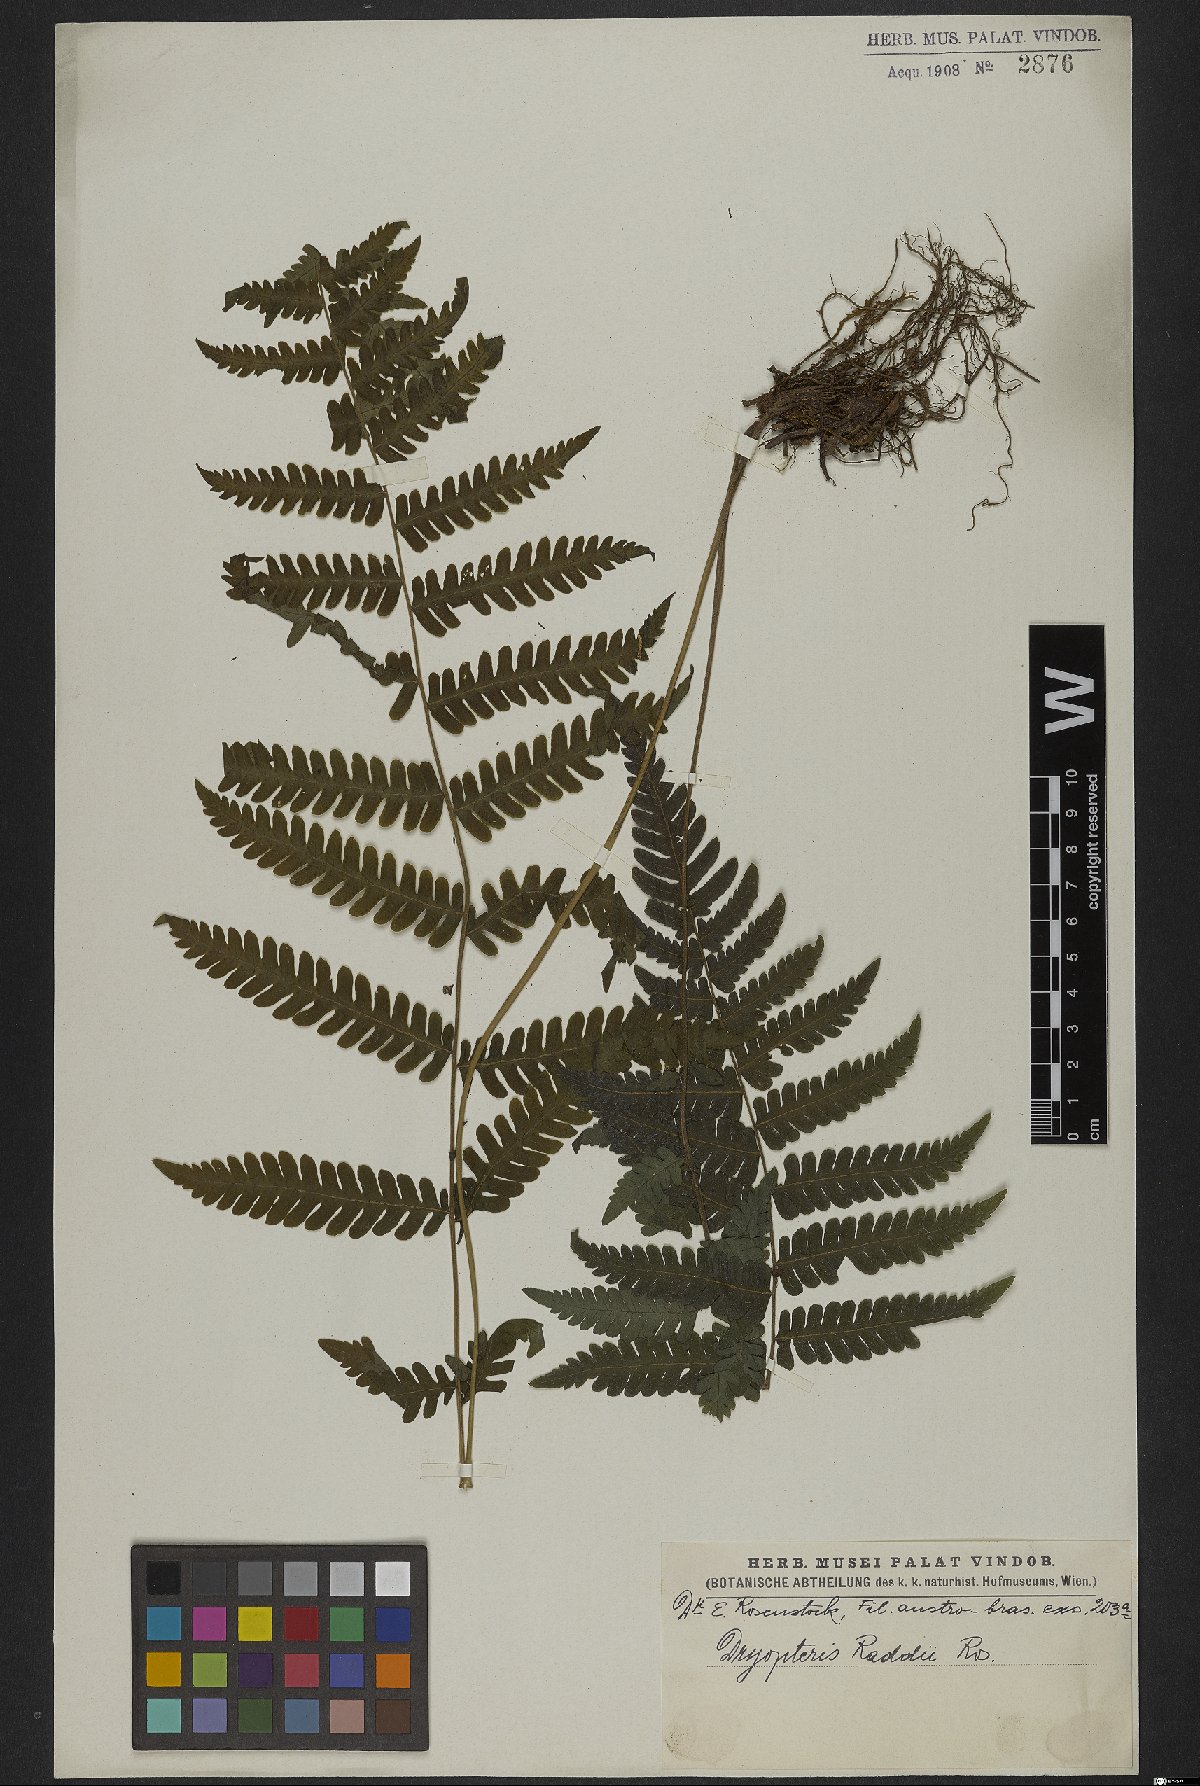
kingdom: Plantae
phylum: Tracheophyta
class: Polypodiopsida
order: Polypodiales
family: Thelypteridaceae
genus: Amauropelta
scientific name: Amauropelta raddii
